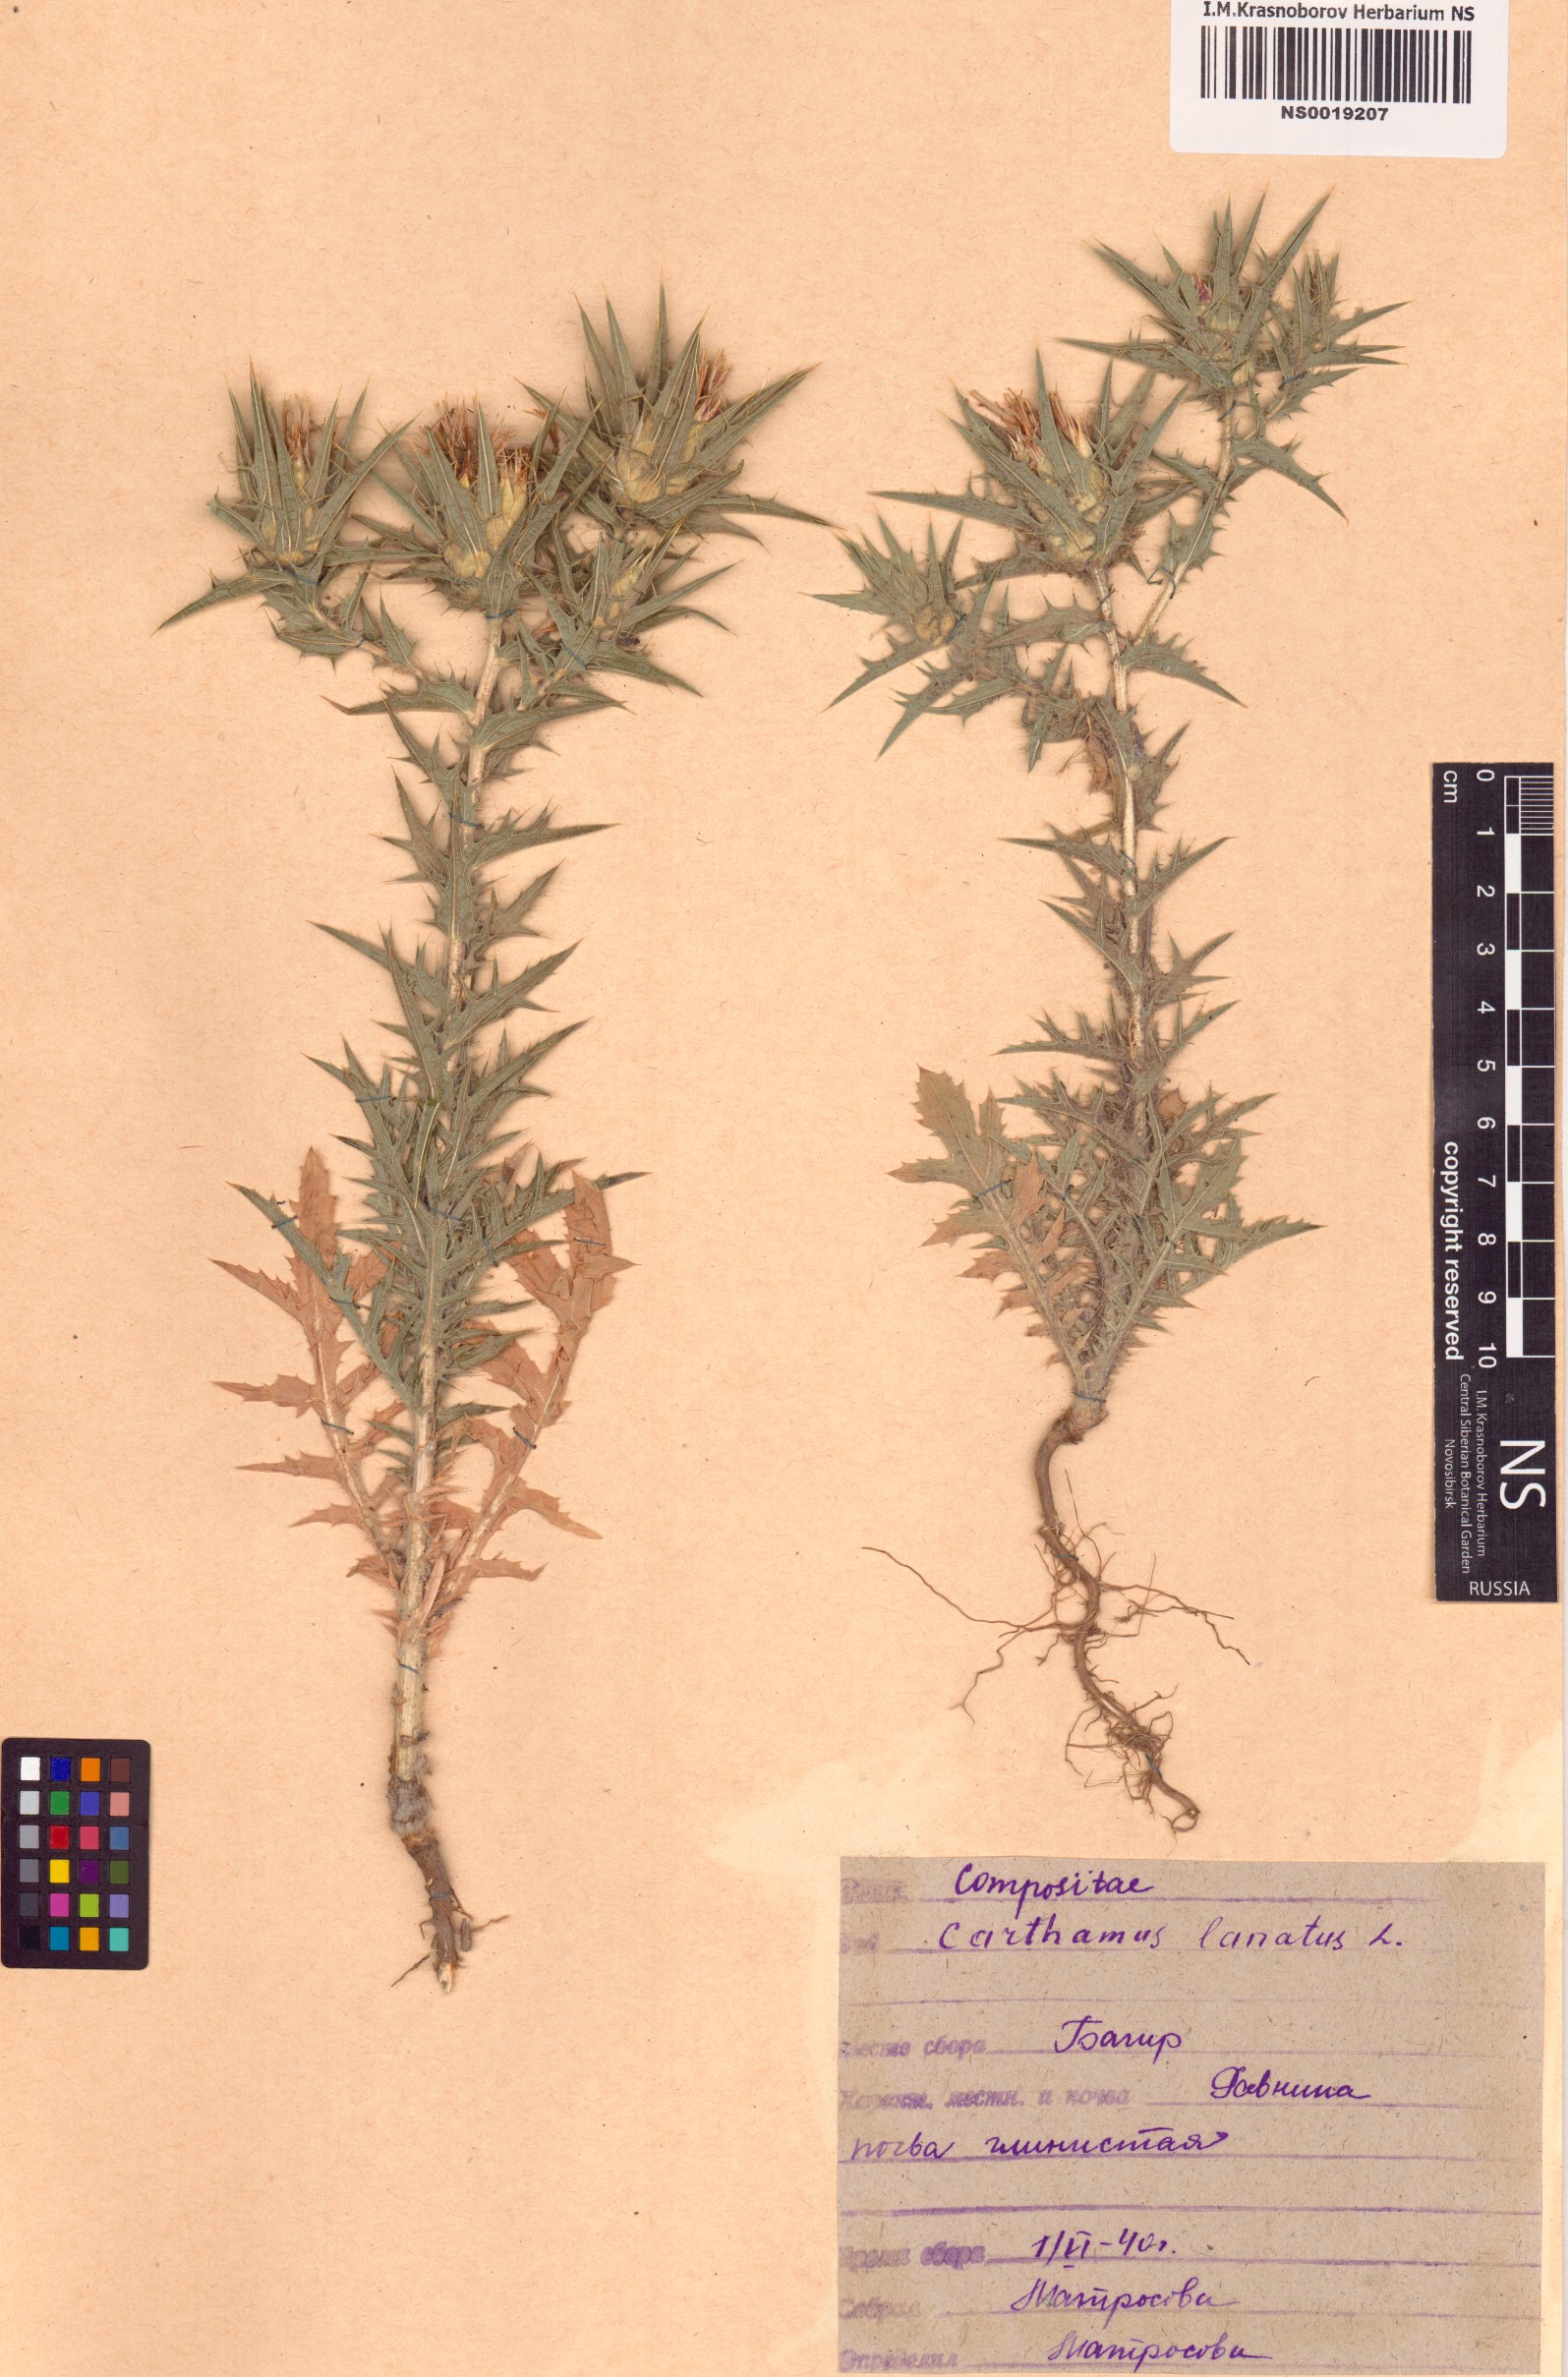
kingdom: Plantae
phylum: Tracheophyta
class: Magnoliopsida
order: Asterales
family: Asteraceae
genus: Carthamus
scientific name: Carthamus lanatus
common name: Downy safflower
